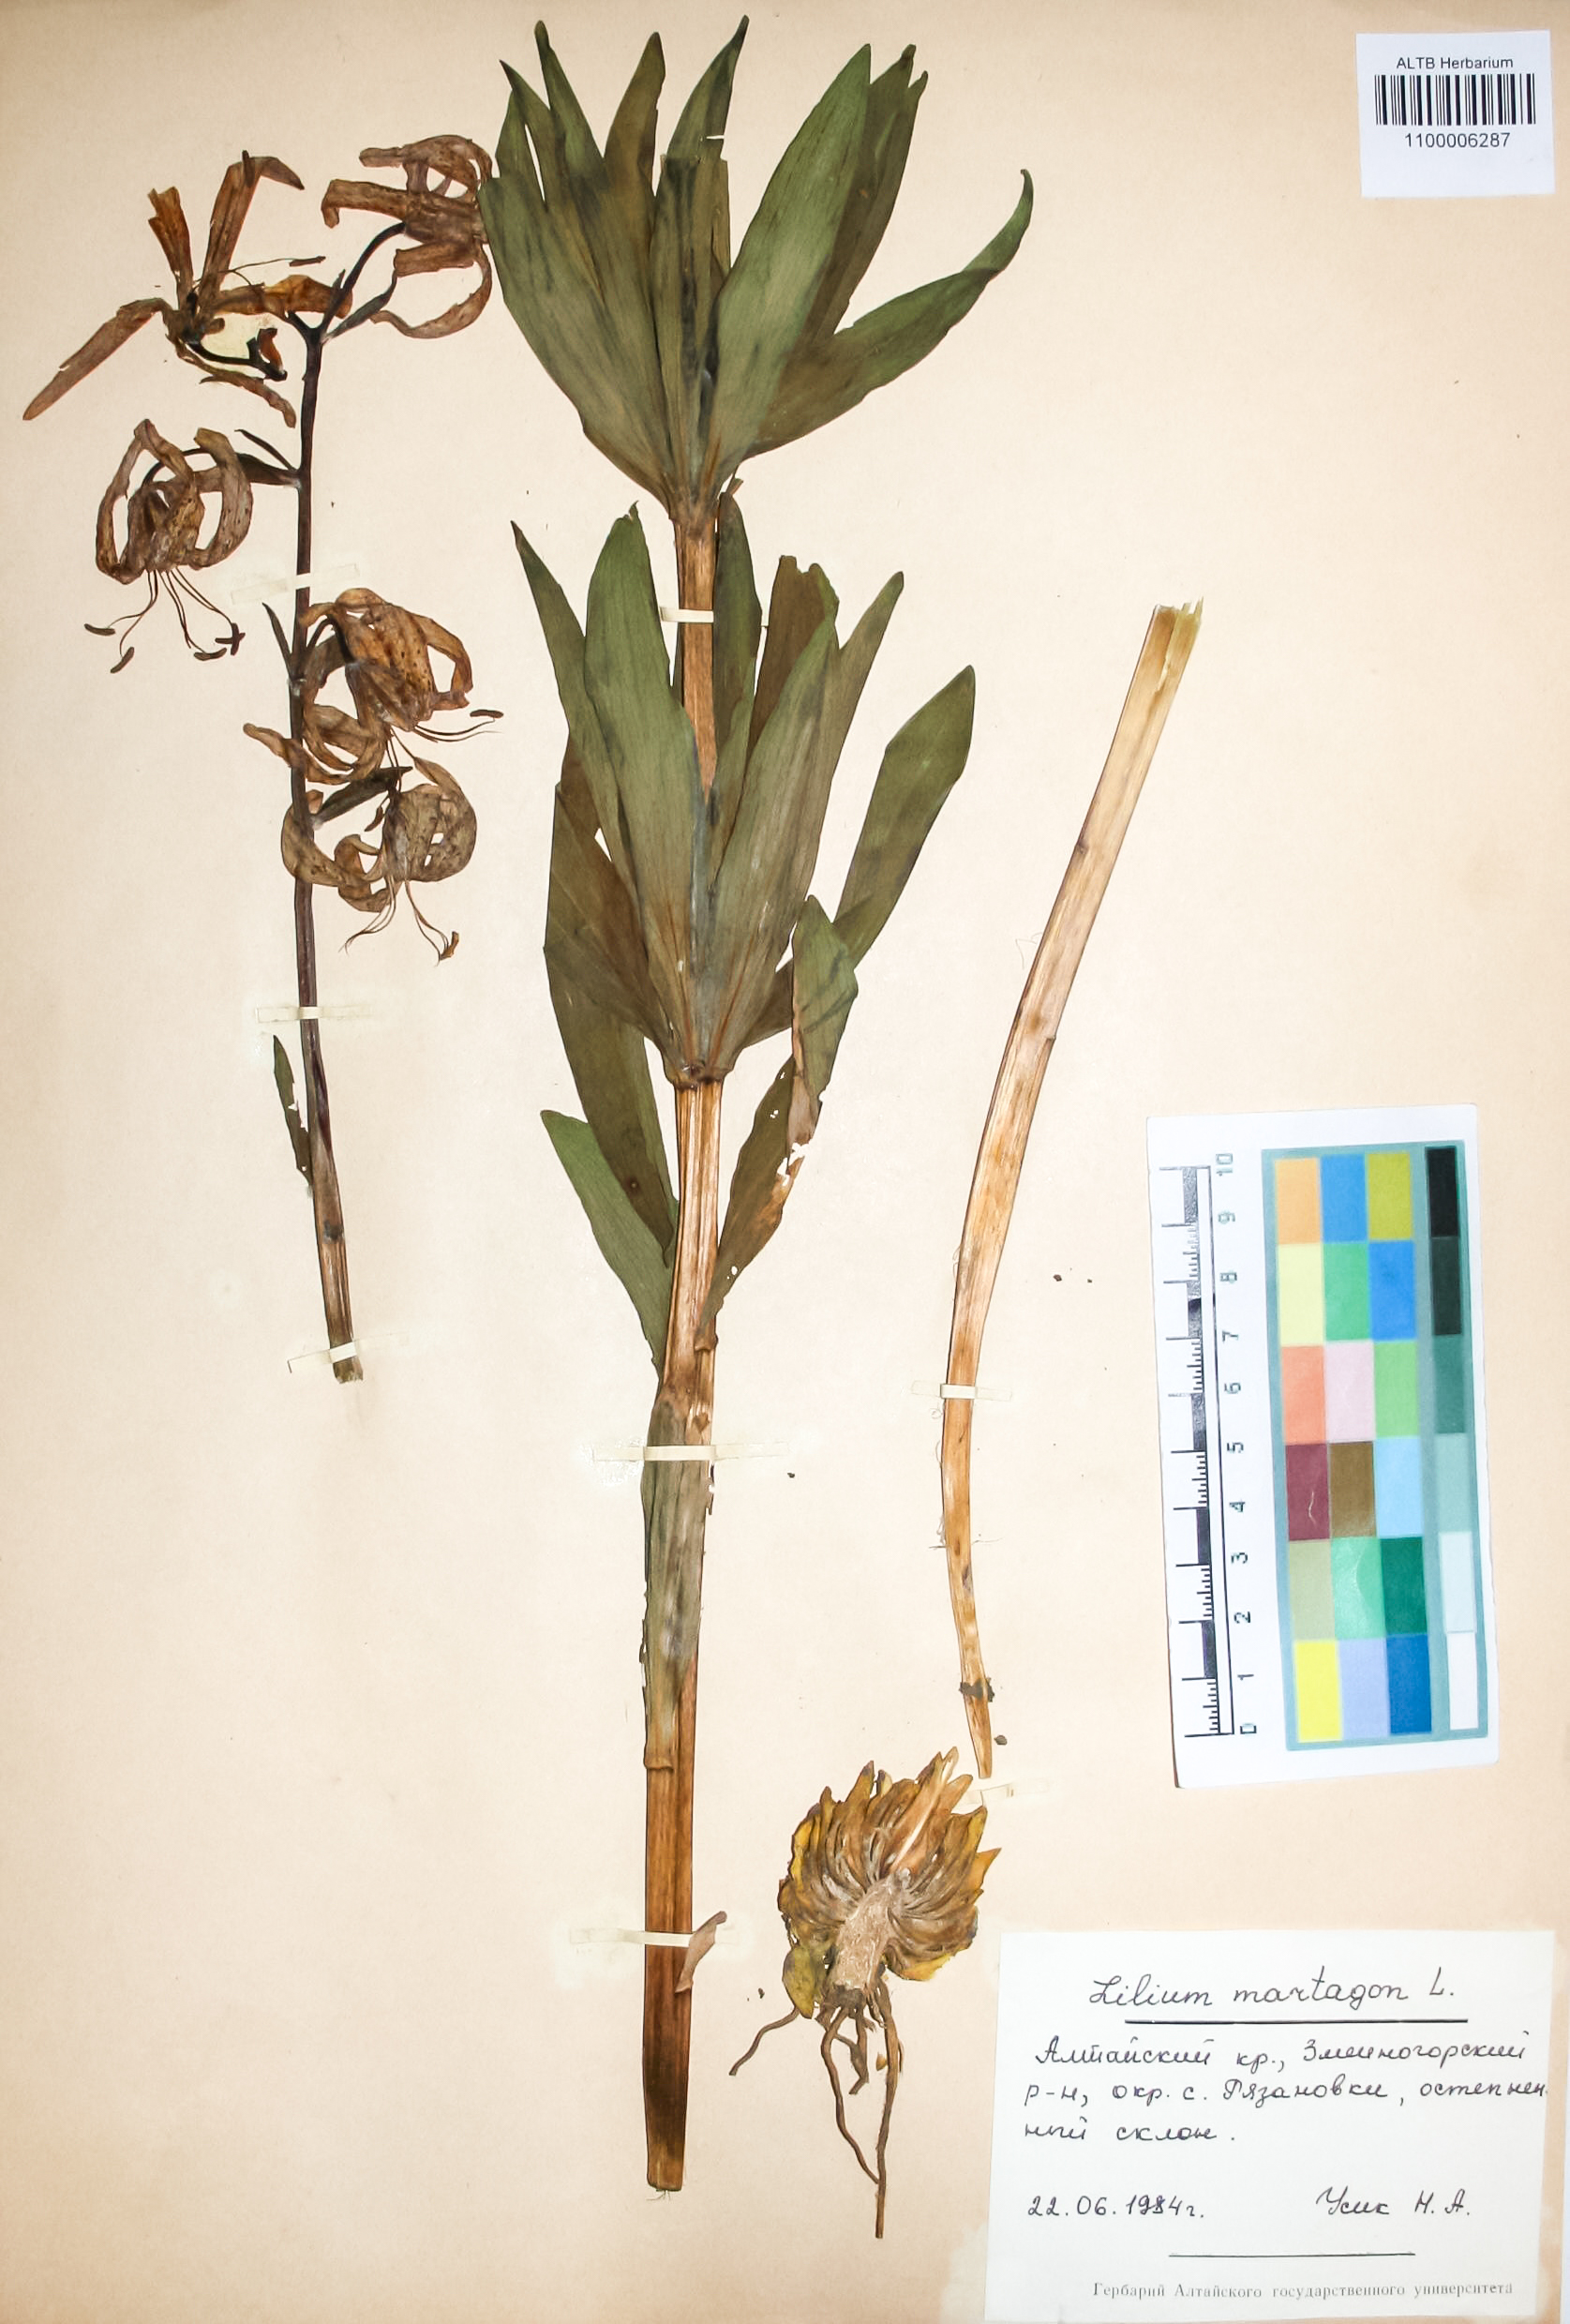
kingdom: Plantae
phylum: Tracheophyta
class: Liliopsida
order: Liliales
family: Liliaceae
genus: Lilium
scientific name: Lilium martagon
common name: Martagon lily
